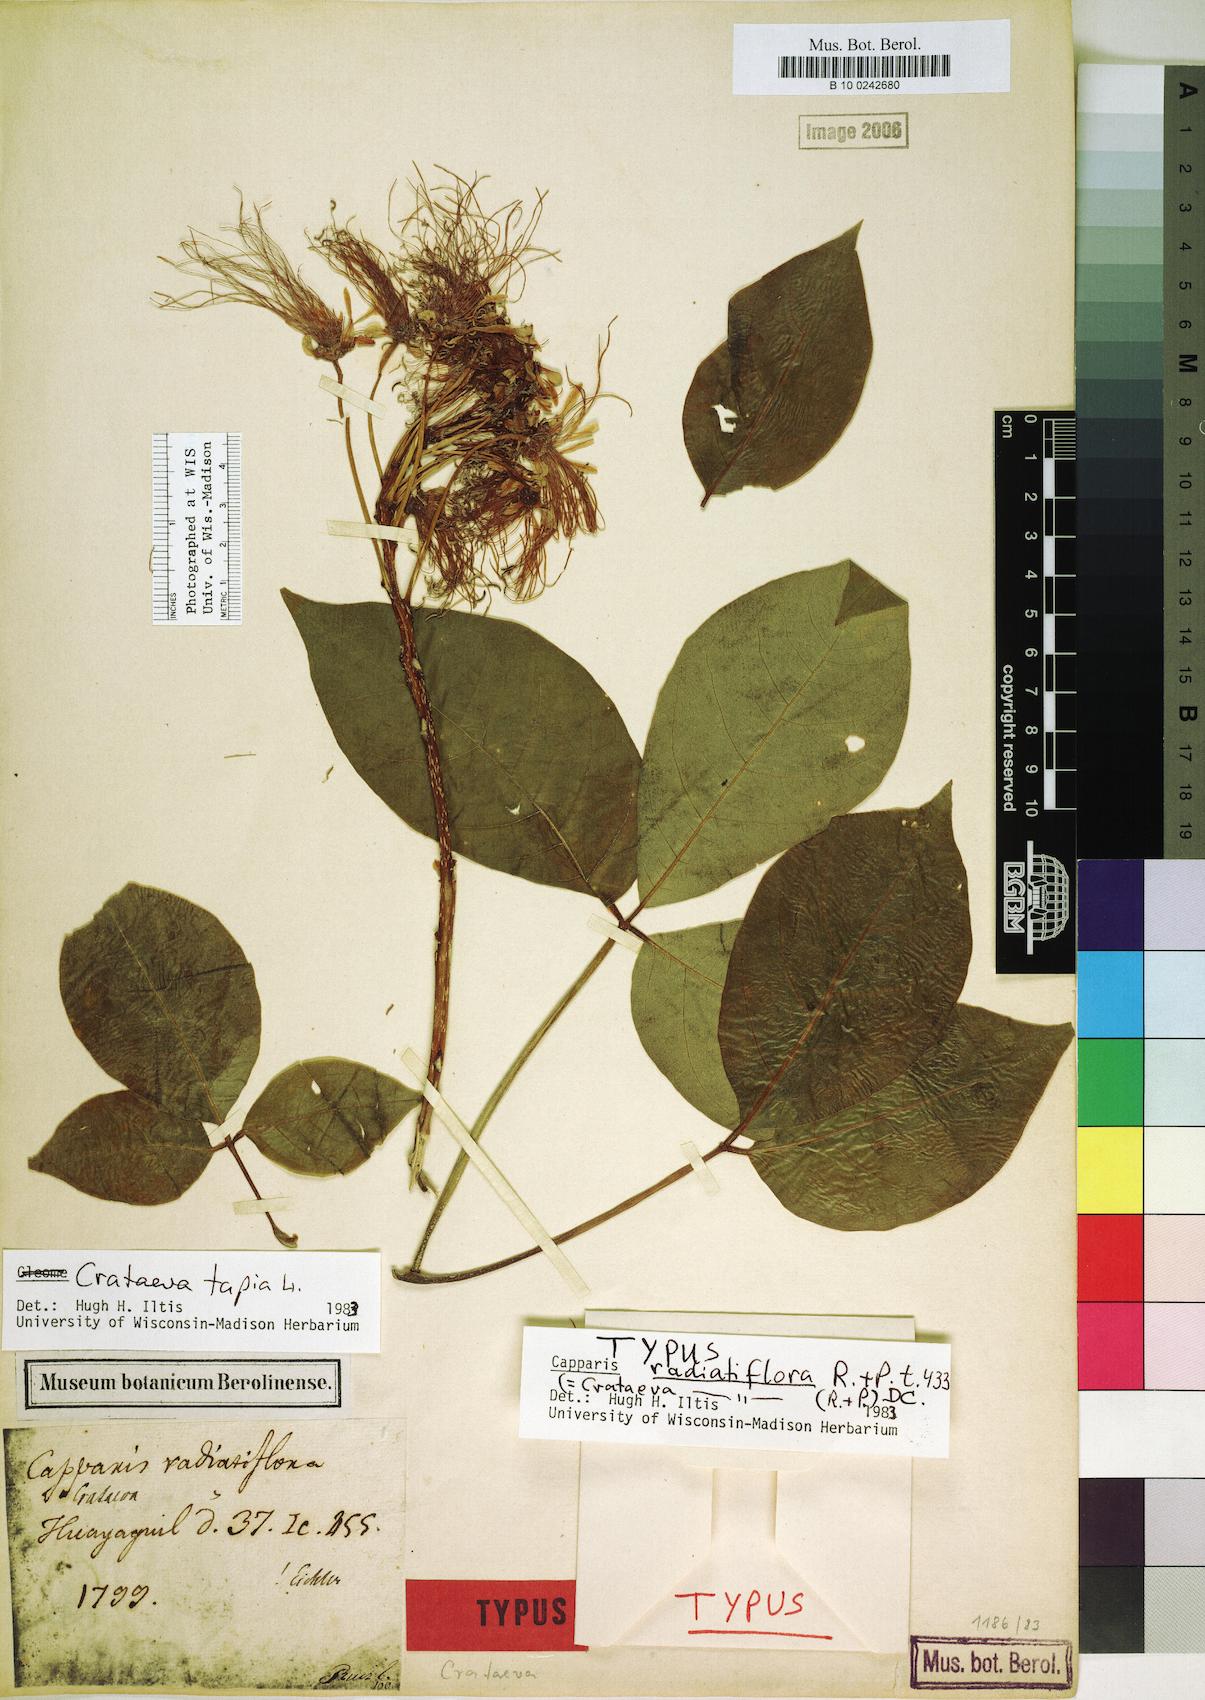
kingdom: Plantae
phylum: Tracheophyta
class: Magnoliopsida
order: Brassicales
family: Capparaceae
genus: Crateva
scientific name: Crateva tapia
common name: Garlic-pear
